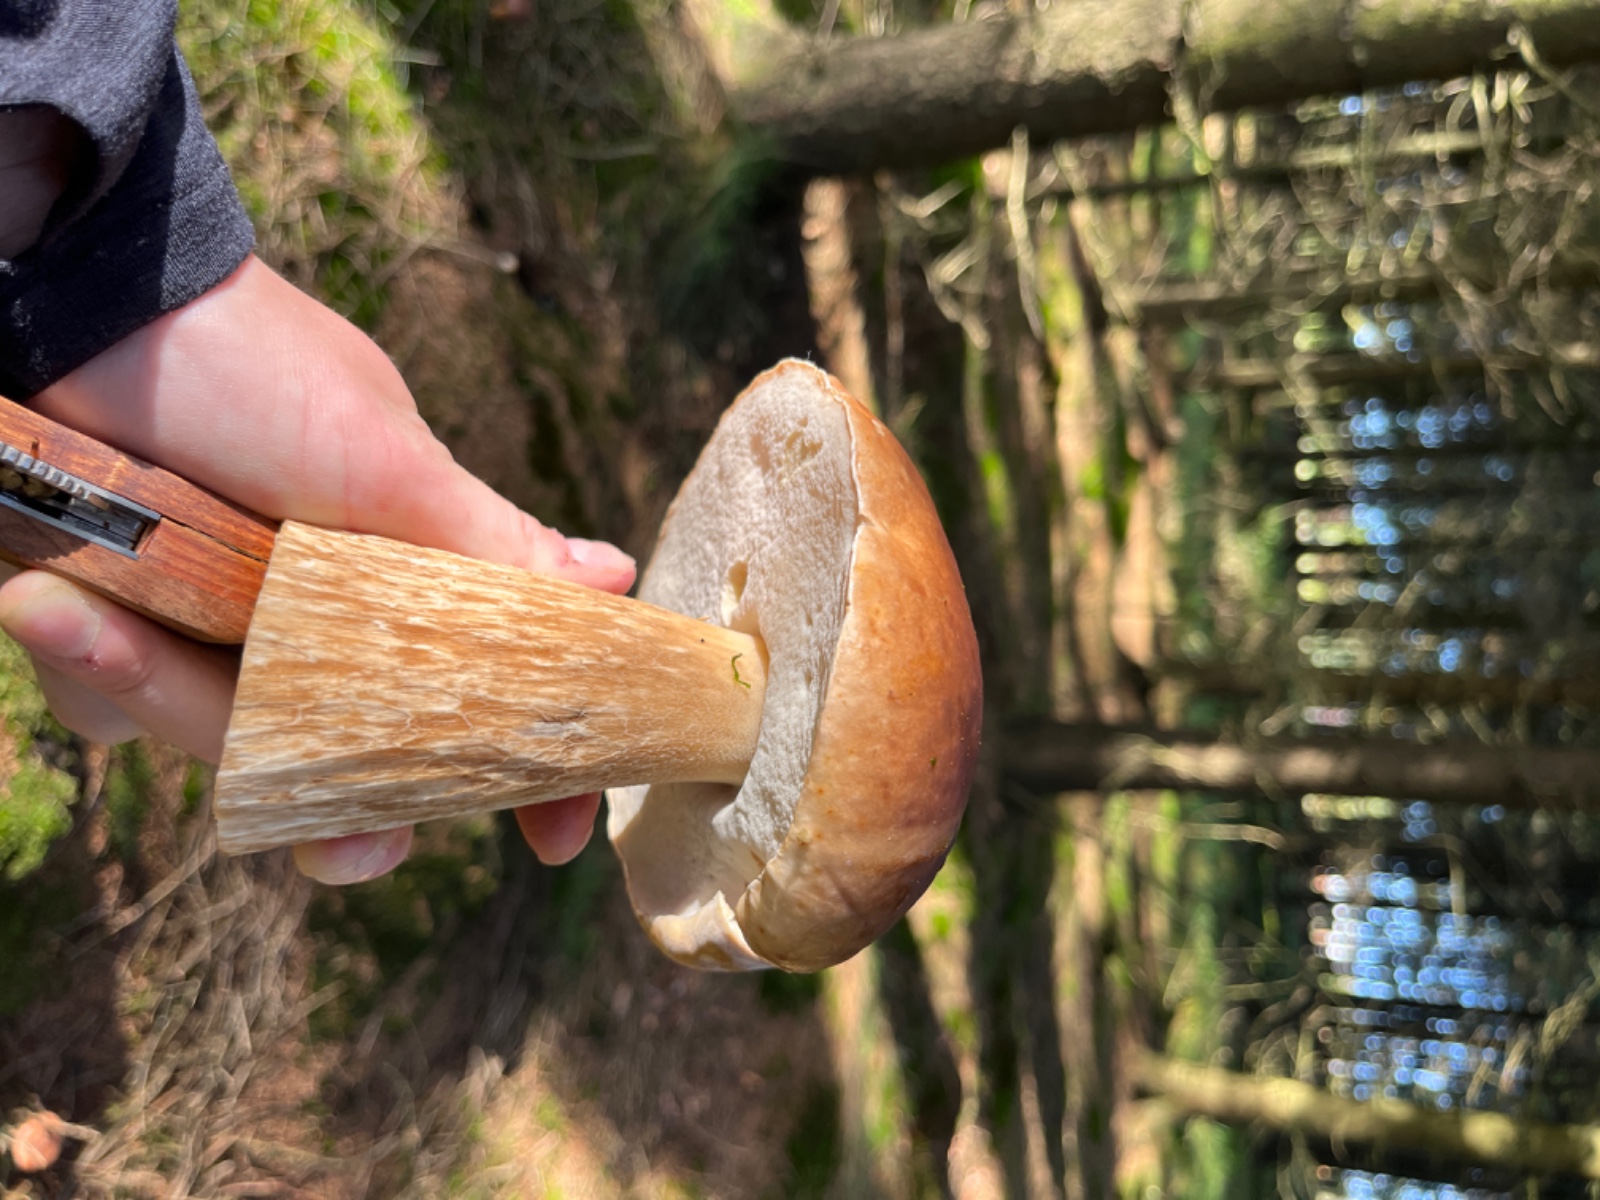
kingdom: Fungi
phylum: Basidiomycota
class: Agaricomycetes
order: Boletales
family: Boletaceae
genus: Boletus
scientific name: Boletus edulis
